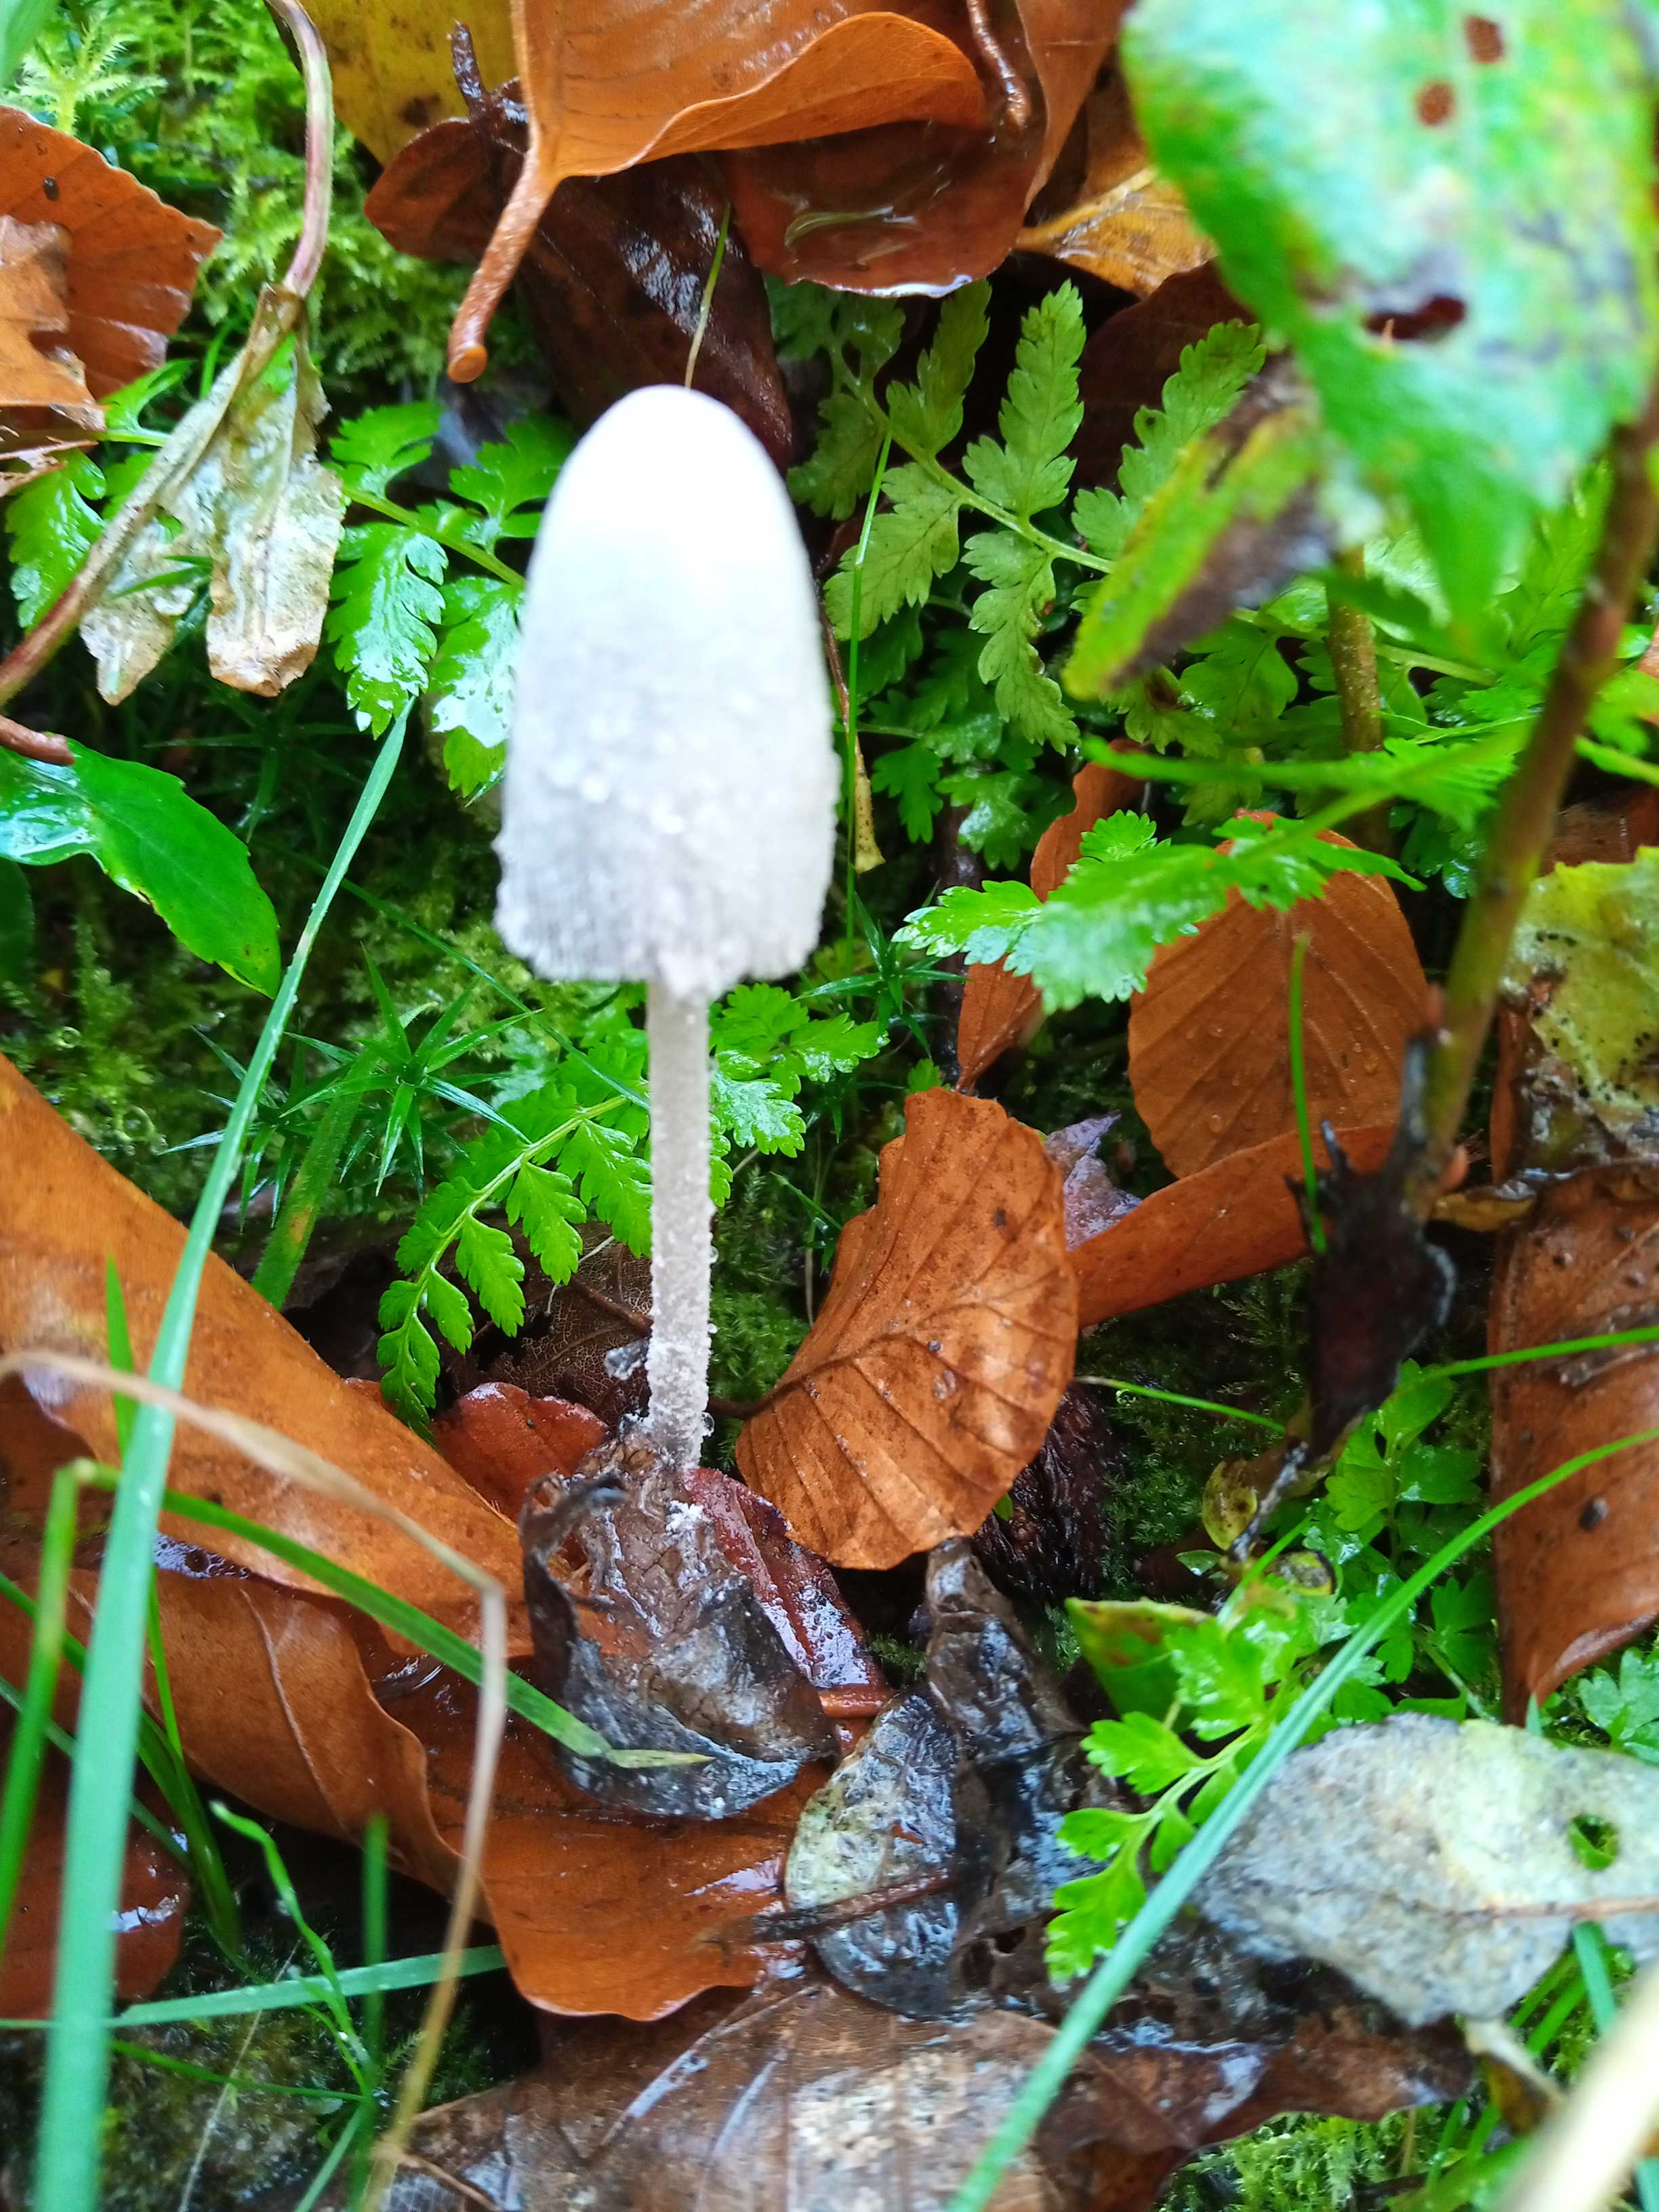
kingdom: Fungi
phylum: Basidiomycota
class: Agaricomycetes
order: Agaricales
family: Psathyrellaceae
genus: Coprinopsis
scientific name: Coprinopsis nivea
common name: snehvid blækhat
